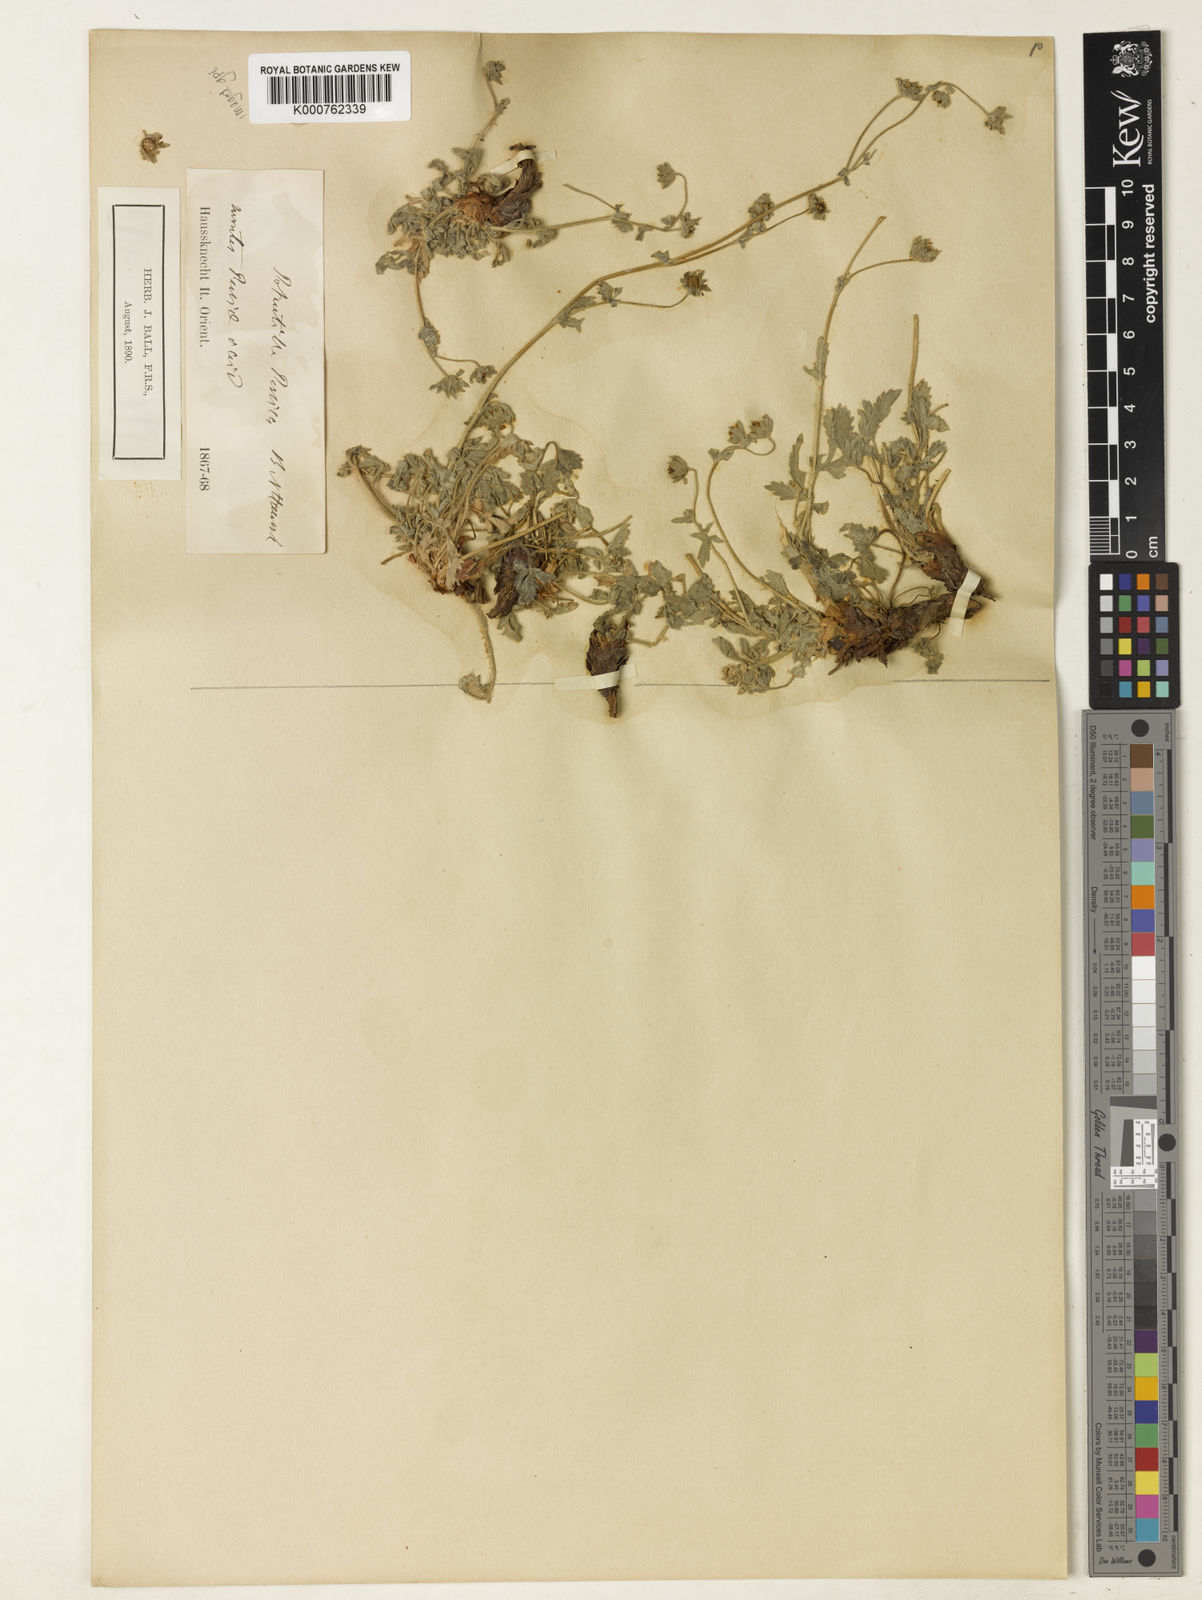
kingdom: Plantae
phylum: Tracheophyta
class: Magnoliopsida
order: Rosales
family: Rosaceae
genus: Potentilla
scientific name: Potentilla persica
